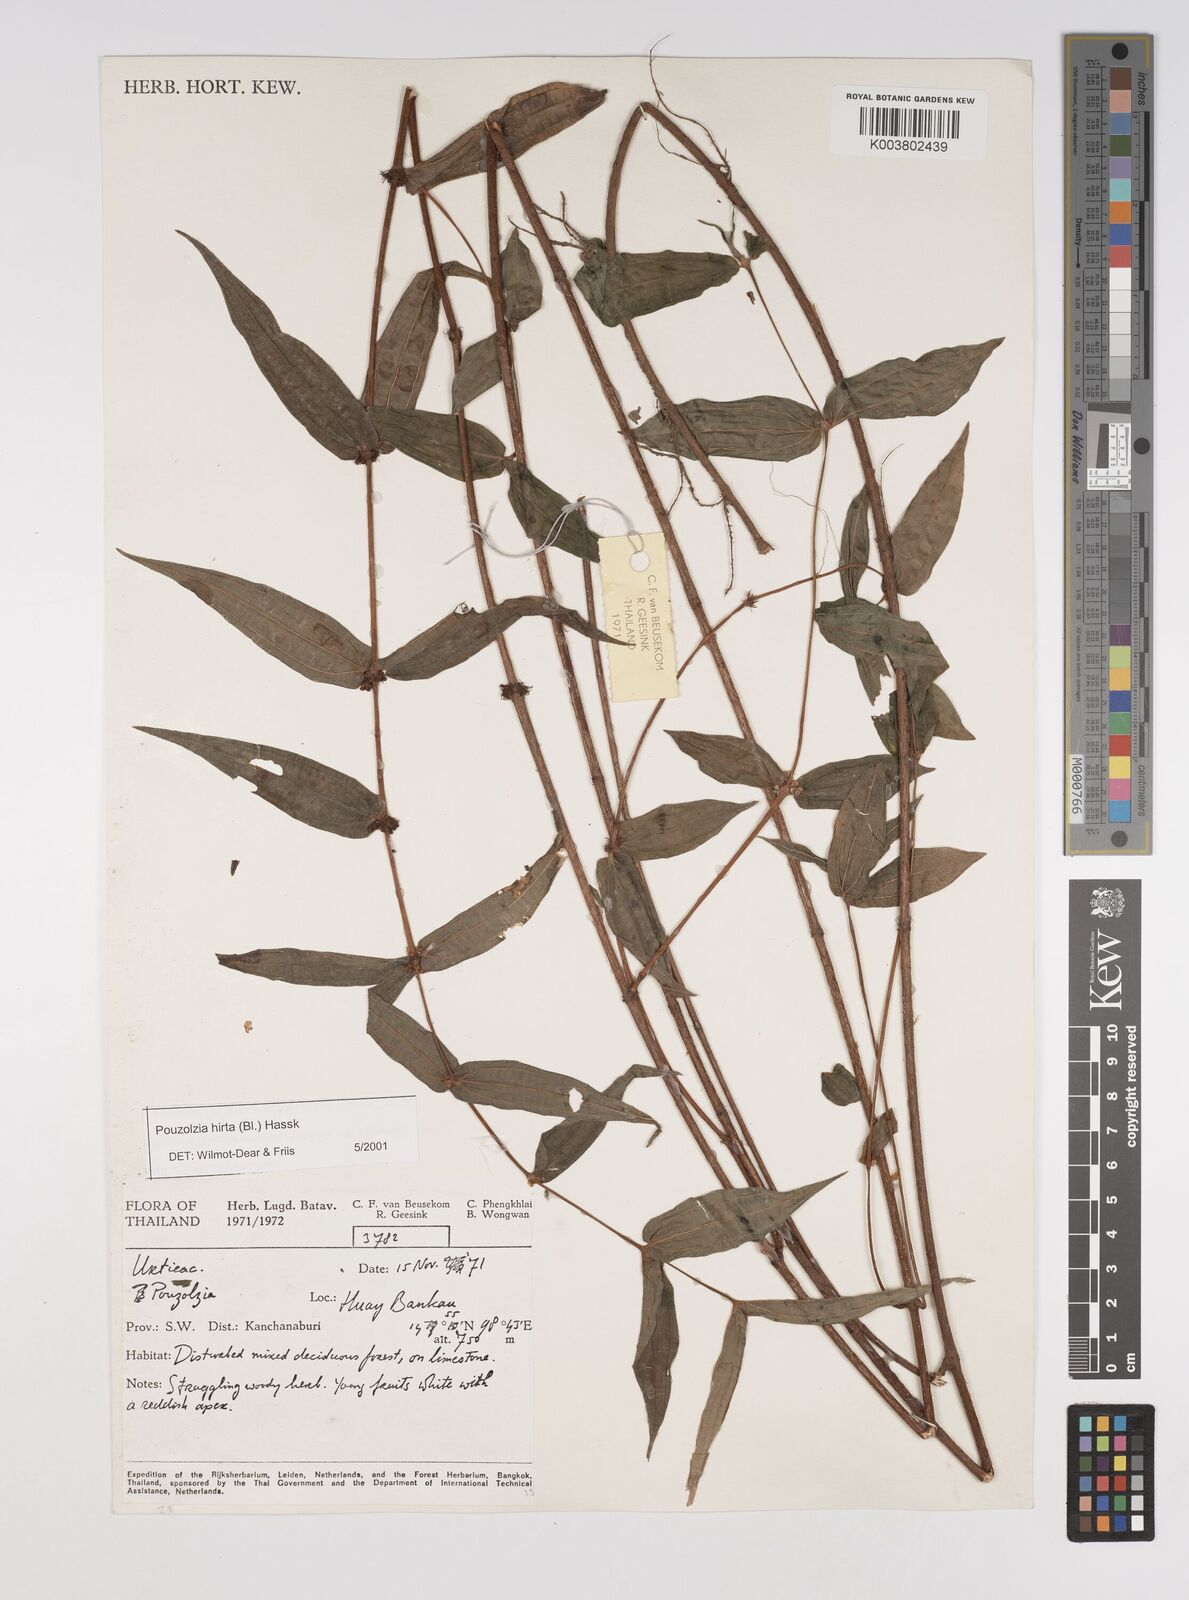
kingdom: Plantae
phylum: Tracheophyta
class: Magnoliopsida
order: Rosales
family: Urticaceae
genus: Gonostegia
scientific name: Gonostegia triandra
